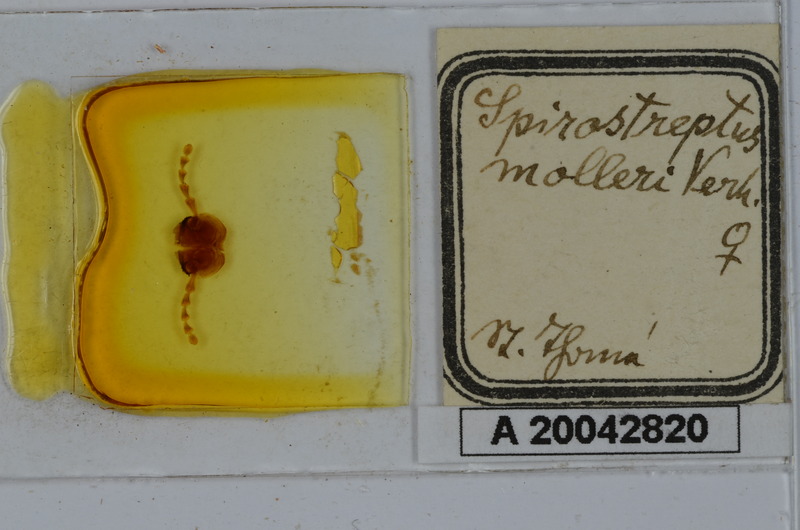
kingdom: Animalia
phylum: Arthropoda
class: Diplopoda
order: Spirostreptida
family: Spirostreptidae
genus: Globanus
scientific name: Globanus integer
